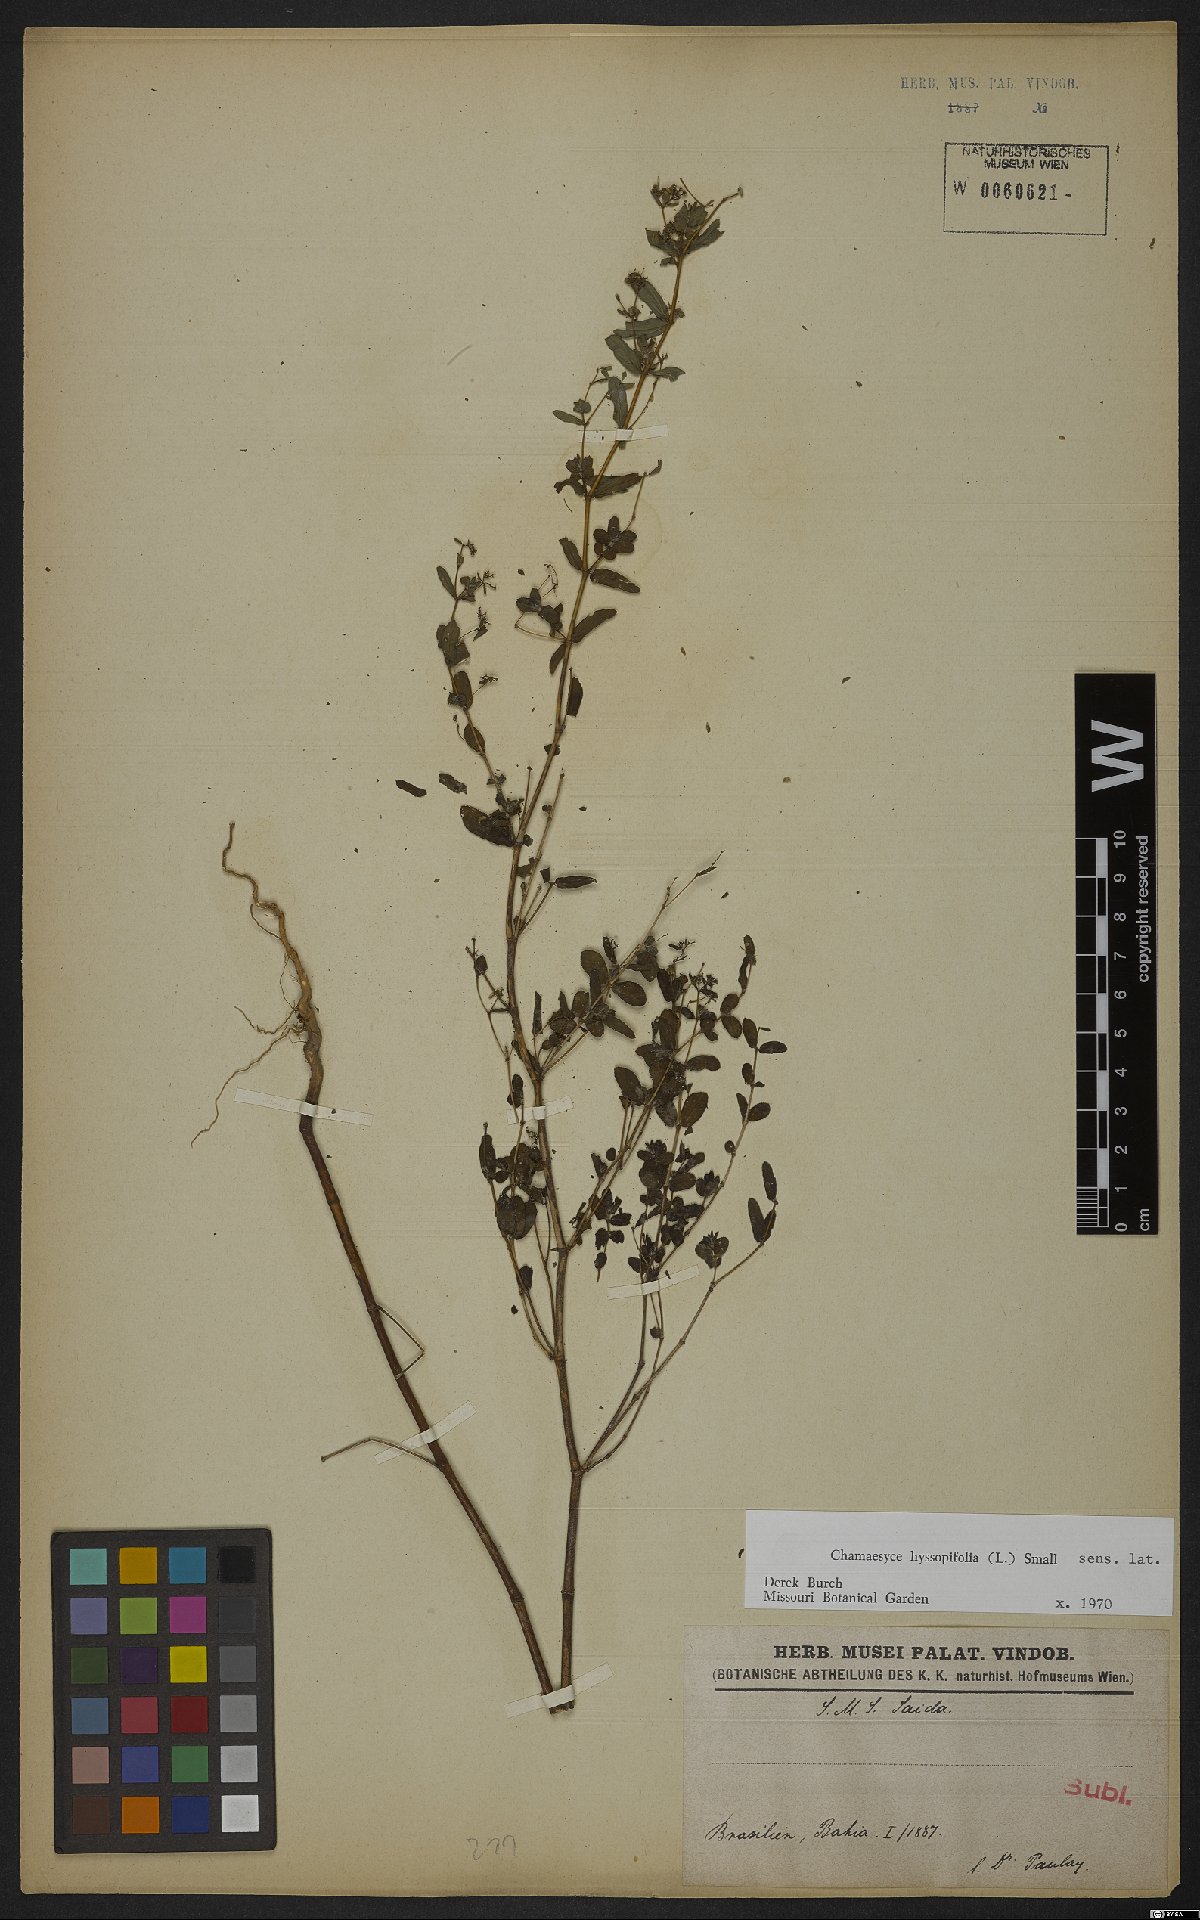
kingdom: Plantae
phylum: Tracheophyta
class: Magnoliopsida
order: Malpighiales
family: Euphorbiaceae
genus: Euphorbia
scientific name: Euphorbia hyssopifolia
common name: Hyssopleaf sandmat
